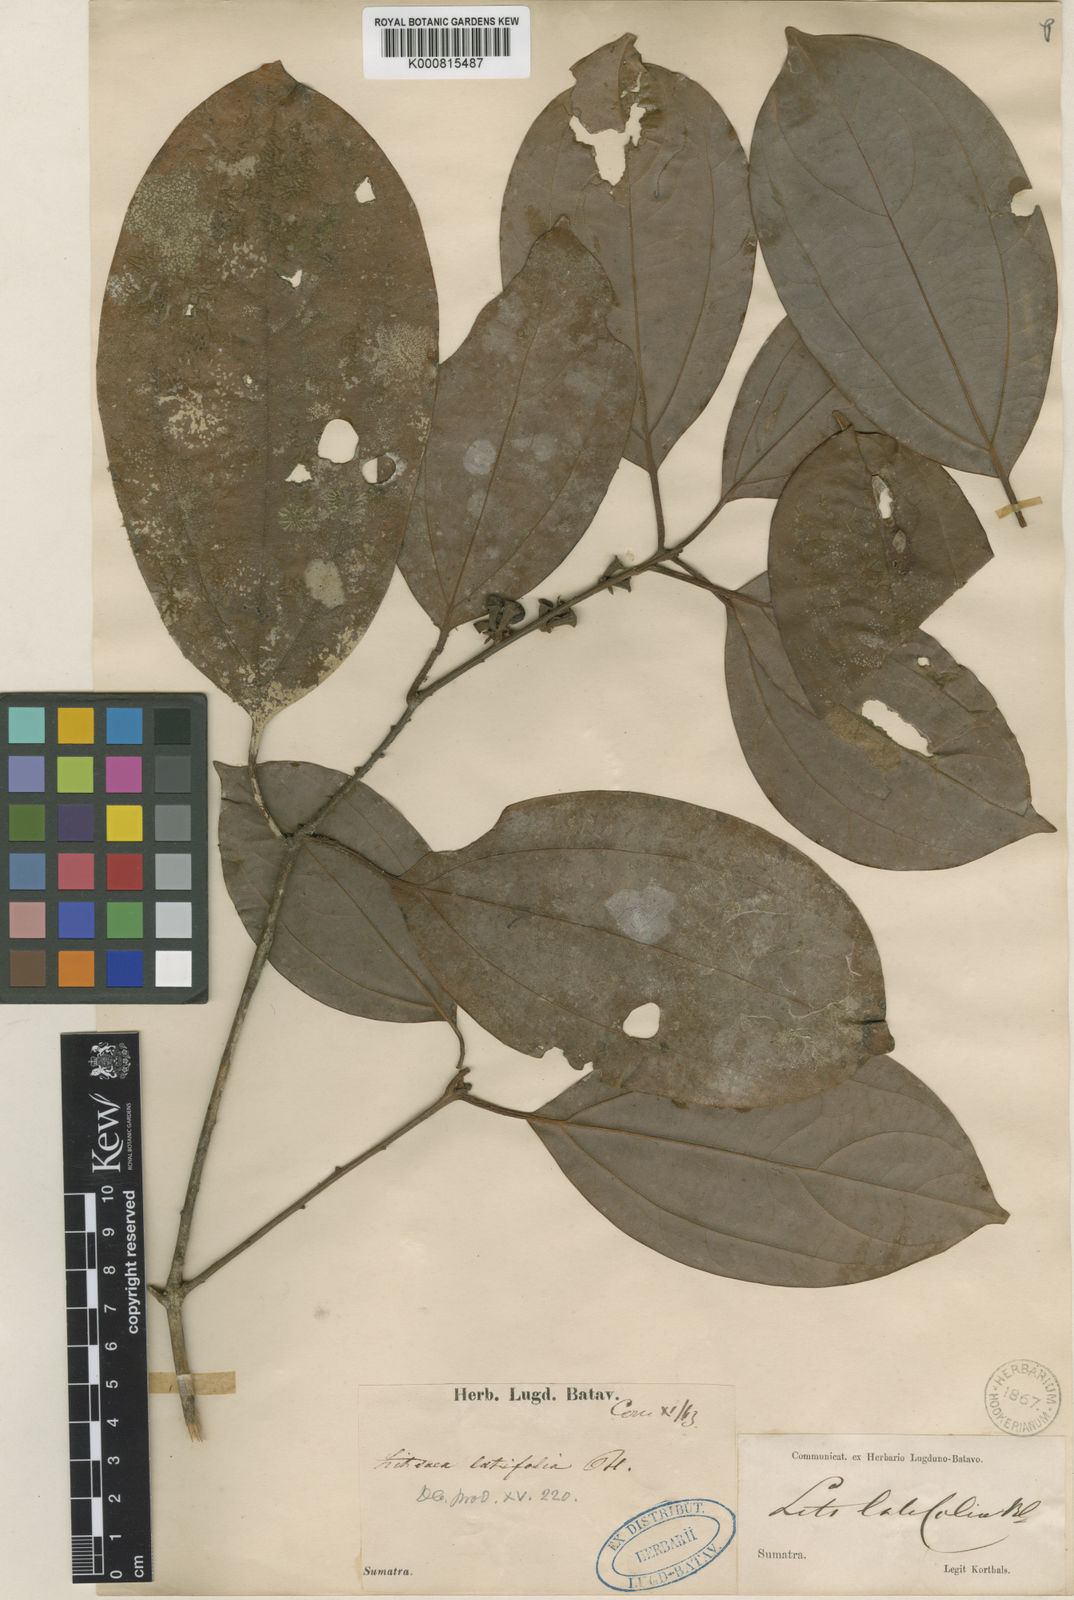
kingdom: Plantae
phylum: Tracheophyta
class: Magnoliopsida
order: Laurales
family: Lauraceae
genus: Neolitsea
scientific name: Neolitsea latifolia
